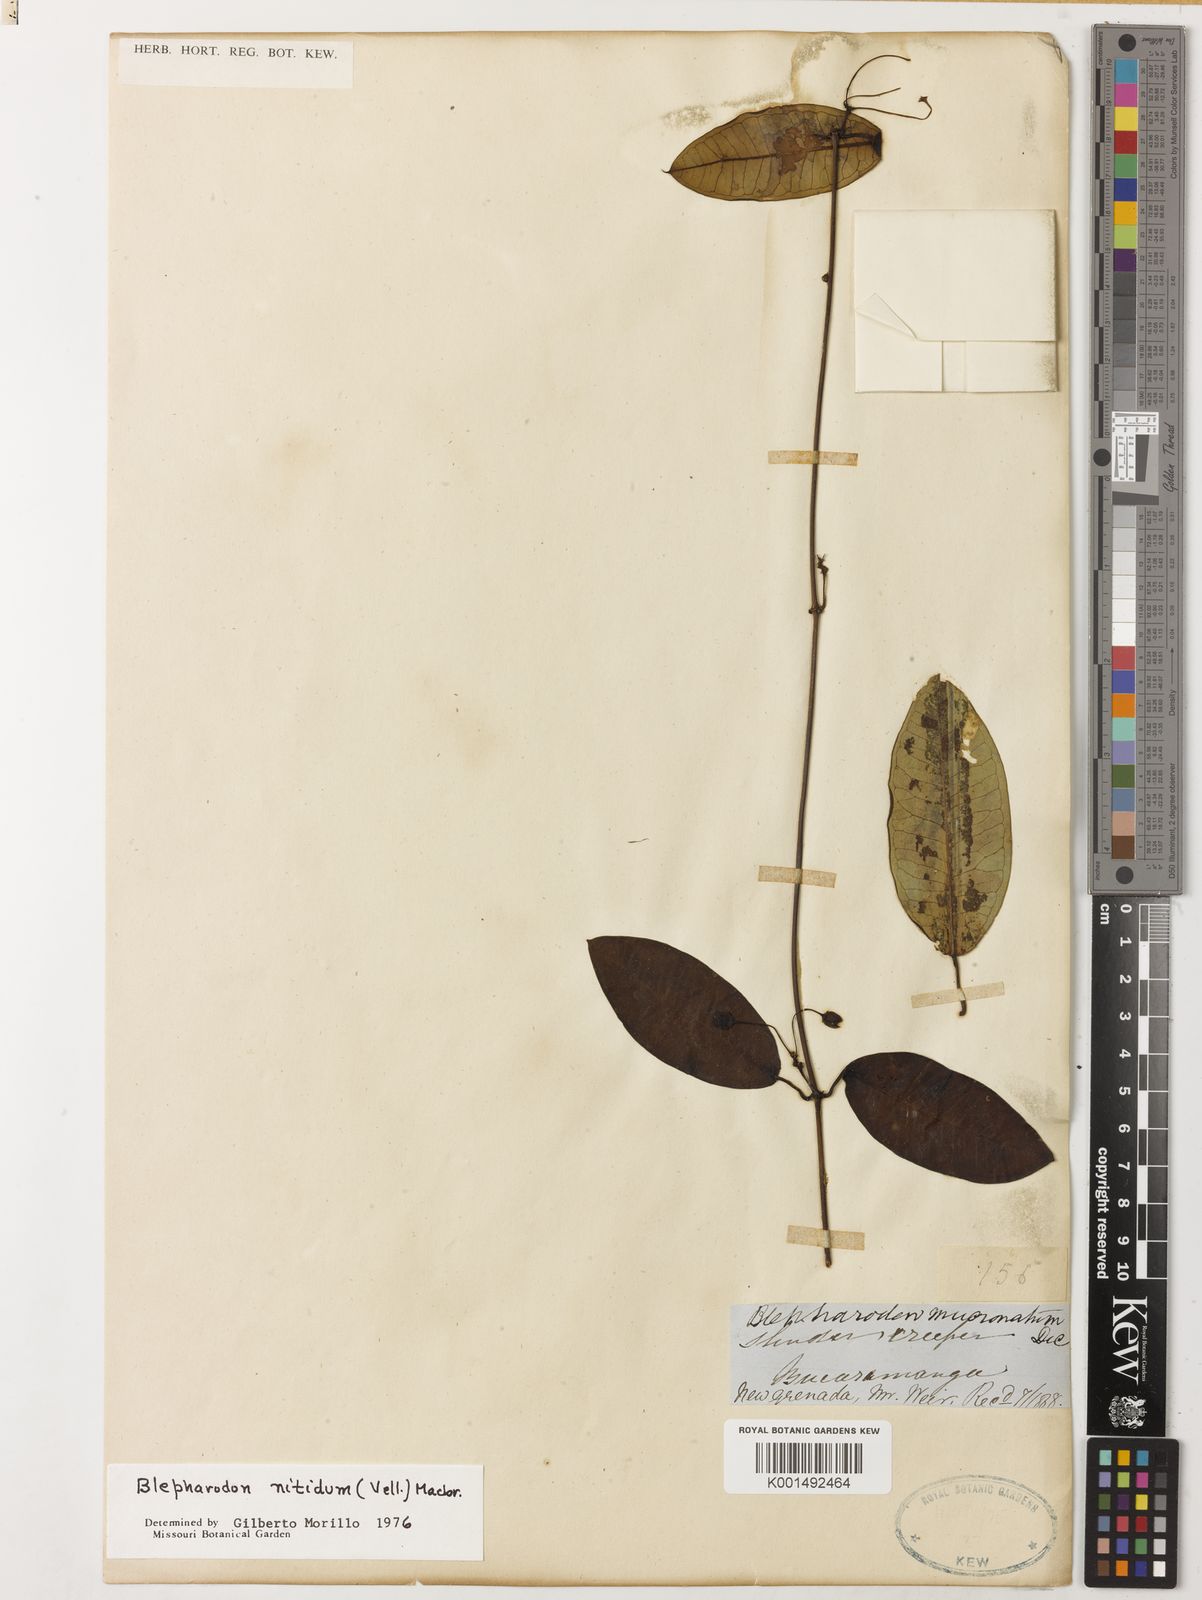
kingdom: Plantae
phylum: Tracheophyta
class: Magnoliopsida
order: Gentianales
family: Apocynaceae
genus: Blepharodon
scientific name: Blepharodon pictum
